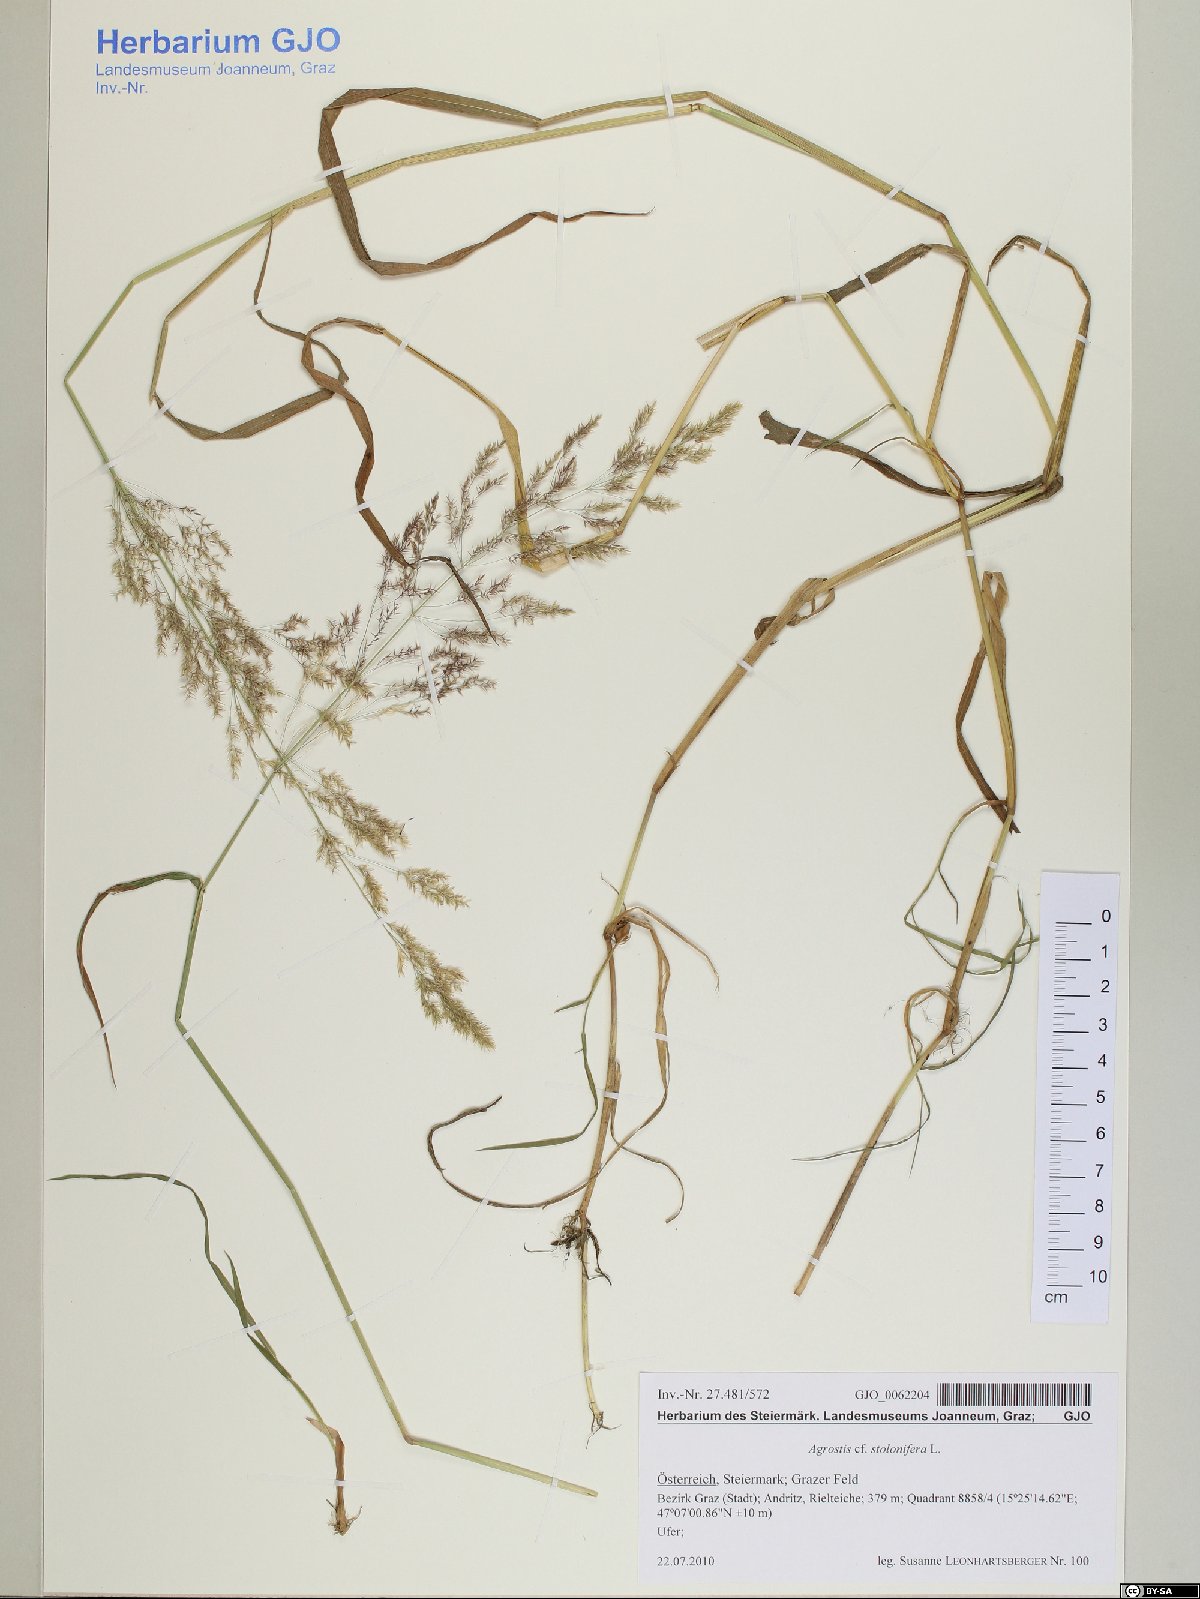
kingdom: Plantae
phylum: Tracheophyta
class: Liliopsida
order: Poales
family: Poaceae
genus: Agrostis
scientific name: Agrostis stolonifera
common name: Creeping bentgrass
